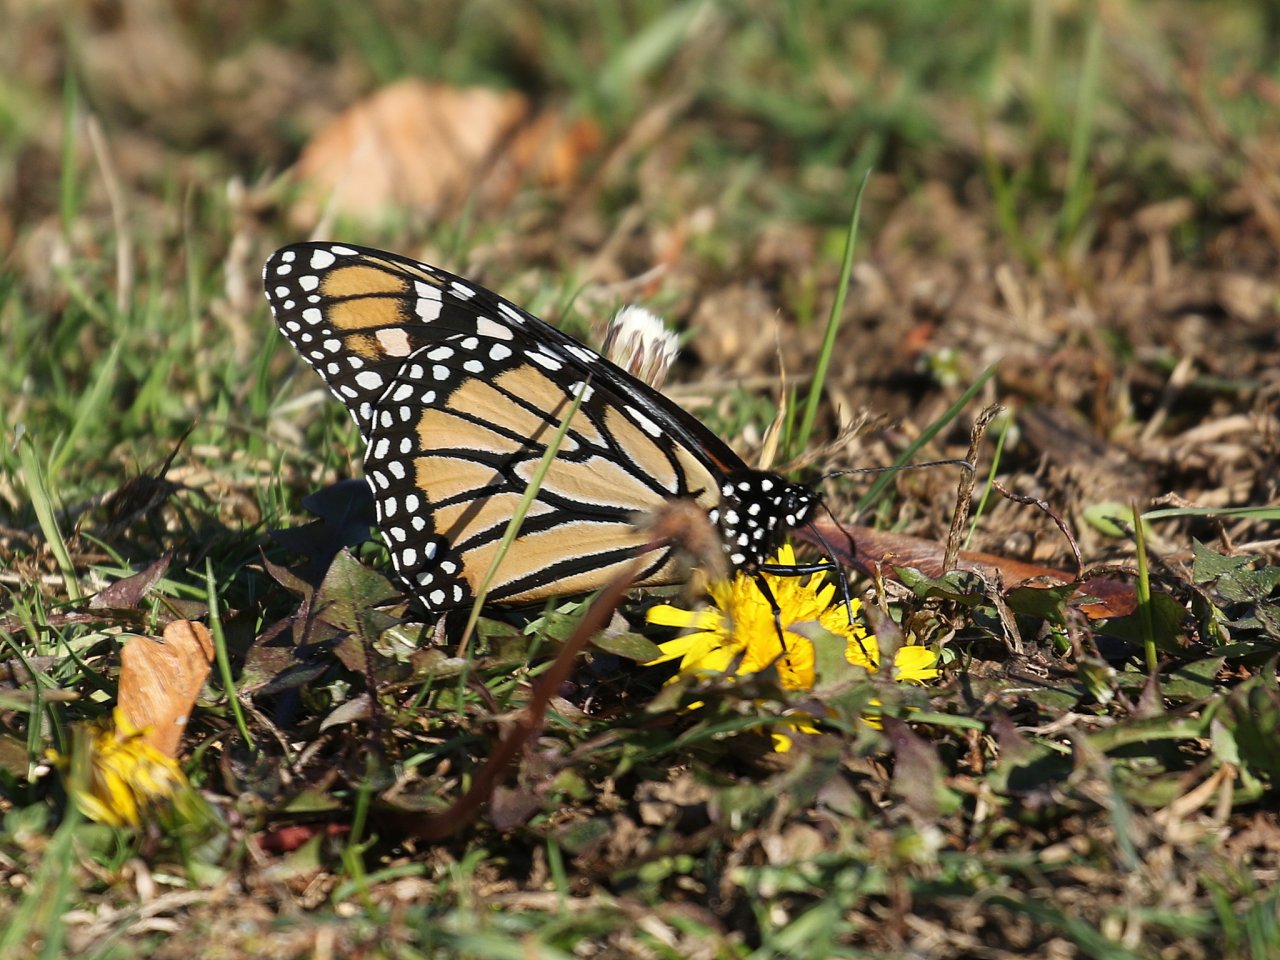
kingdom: Animalia
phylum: Arthropoda
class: Insecta
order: Lepidoptera
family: Nymphalidae
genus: Danaus
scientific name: Danaus plexippus
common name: Monarch
